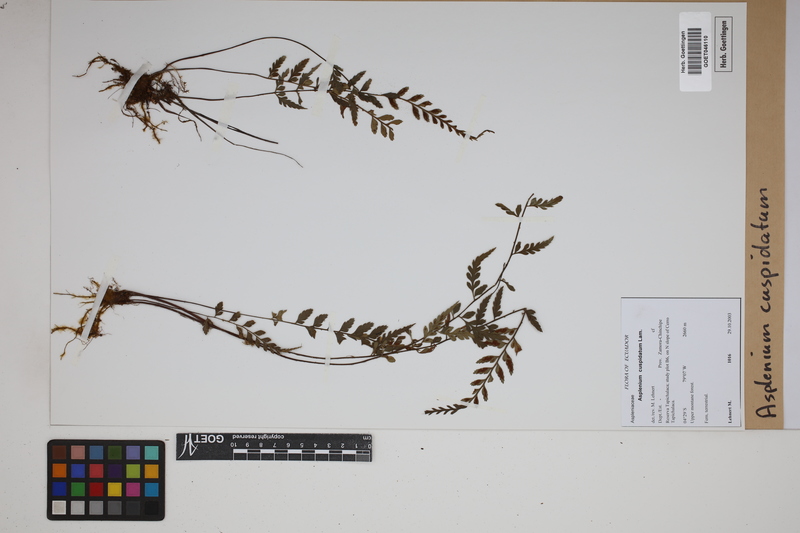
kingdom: Plantae
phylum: Tracheophyta
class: Polypodiopsida
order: Polypodiales
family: Aspleniaceae
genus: Asplenium
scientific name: Asplenium cuspidatum
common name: Eared spleenwort
